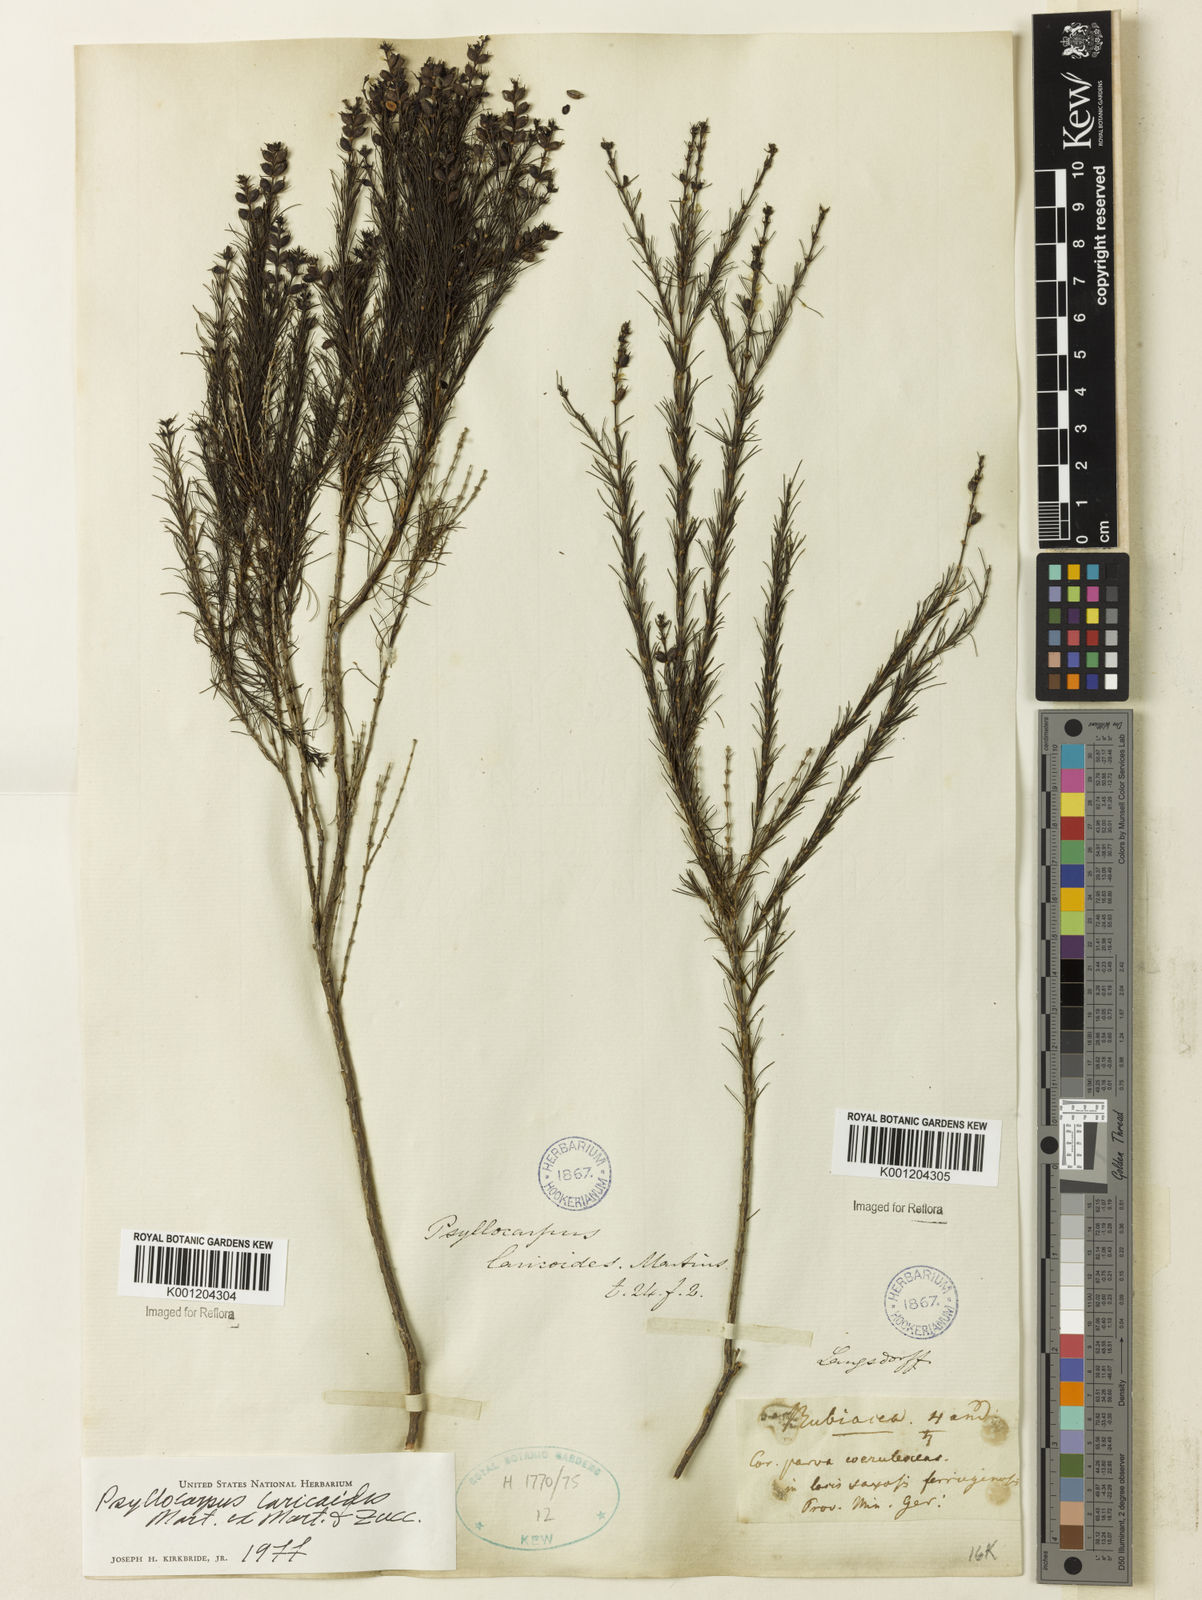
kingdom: Plantae
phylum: Tracheophyta
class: Magnoliopsida
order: Gentianales
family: Rubiaceae
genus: Psyllocarpus
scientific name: Psyllocarpus laricoides
